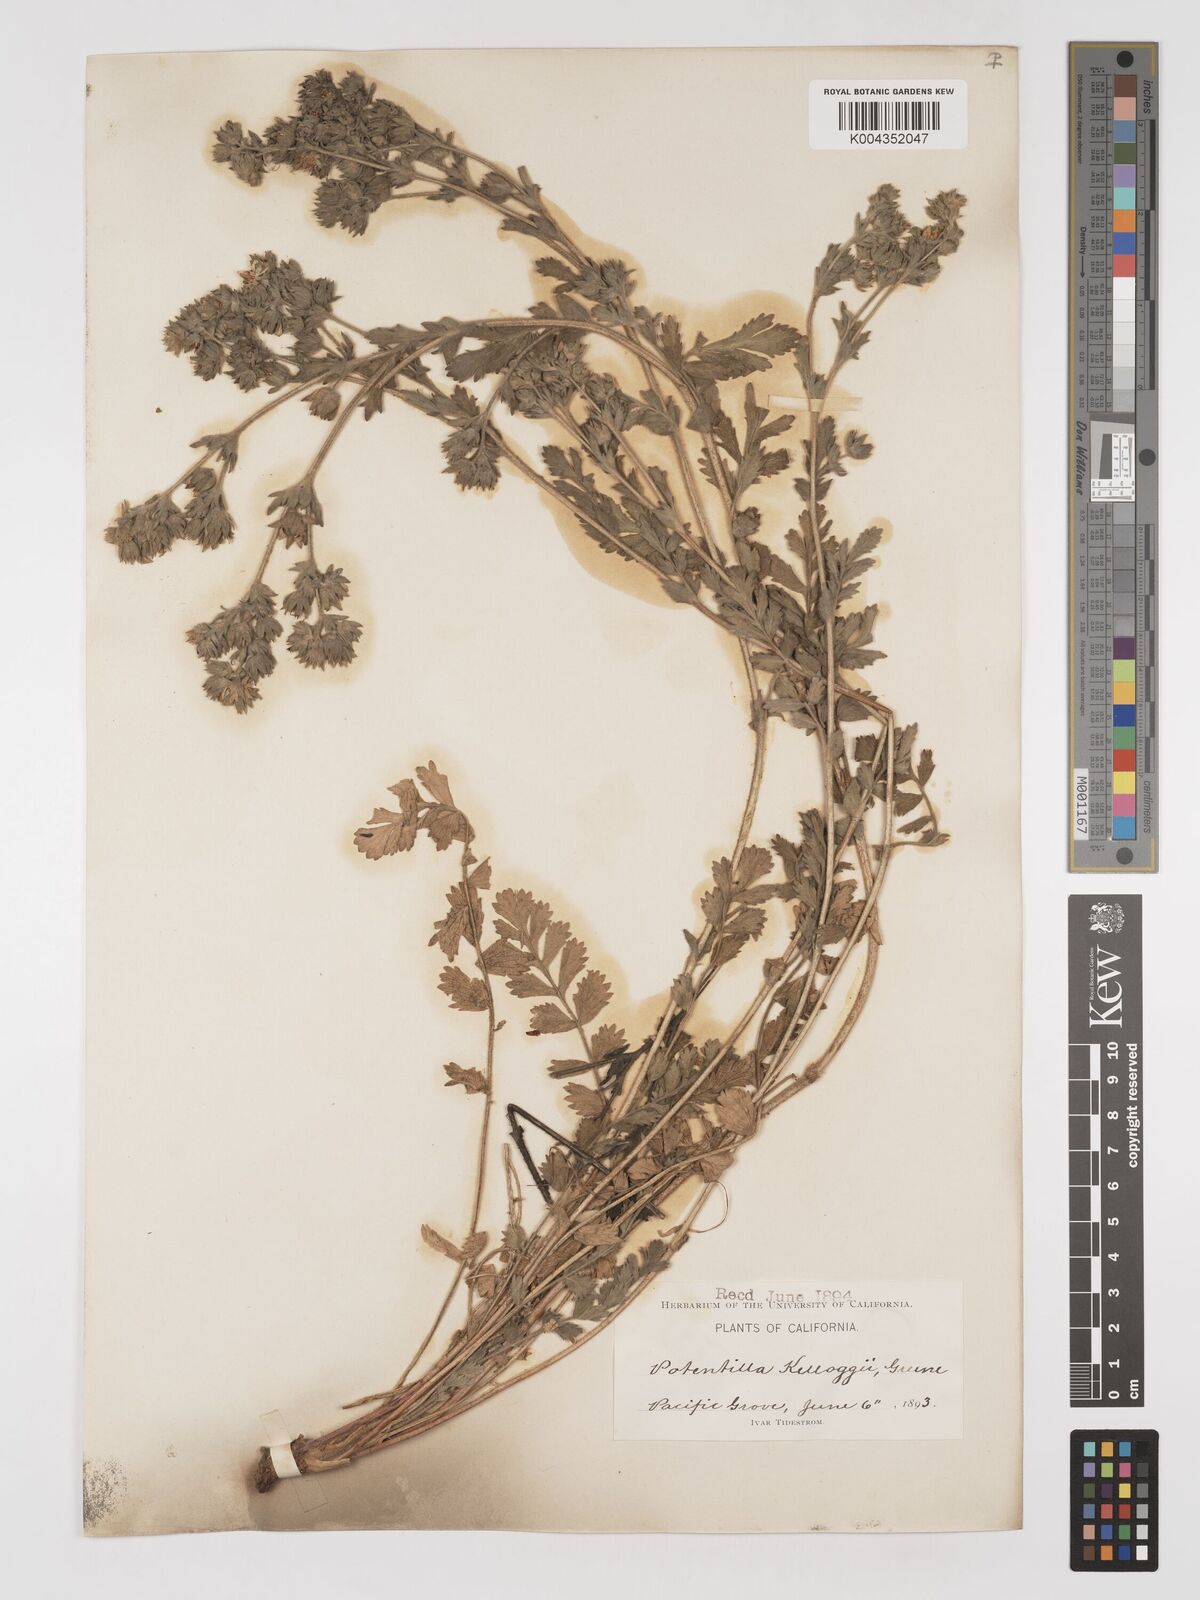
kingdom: Plantae
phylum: Tracheophyta
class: Magnoliopsida
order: Rosales
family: Rosaceae
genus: Potentilla
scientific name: Potentilla lindleyi
